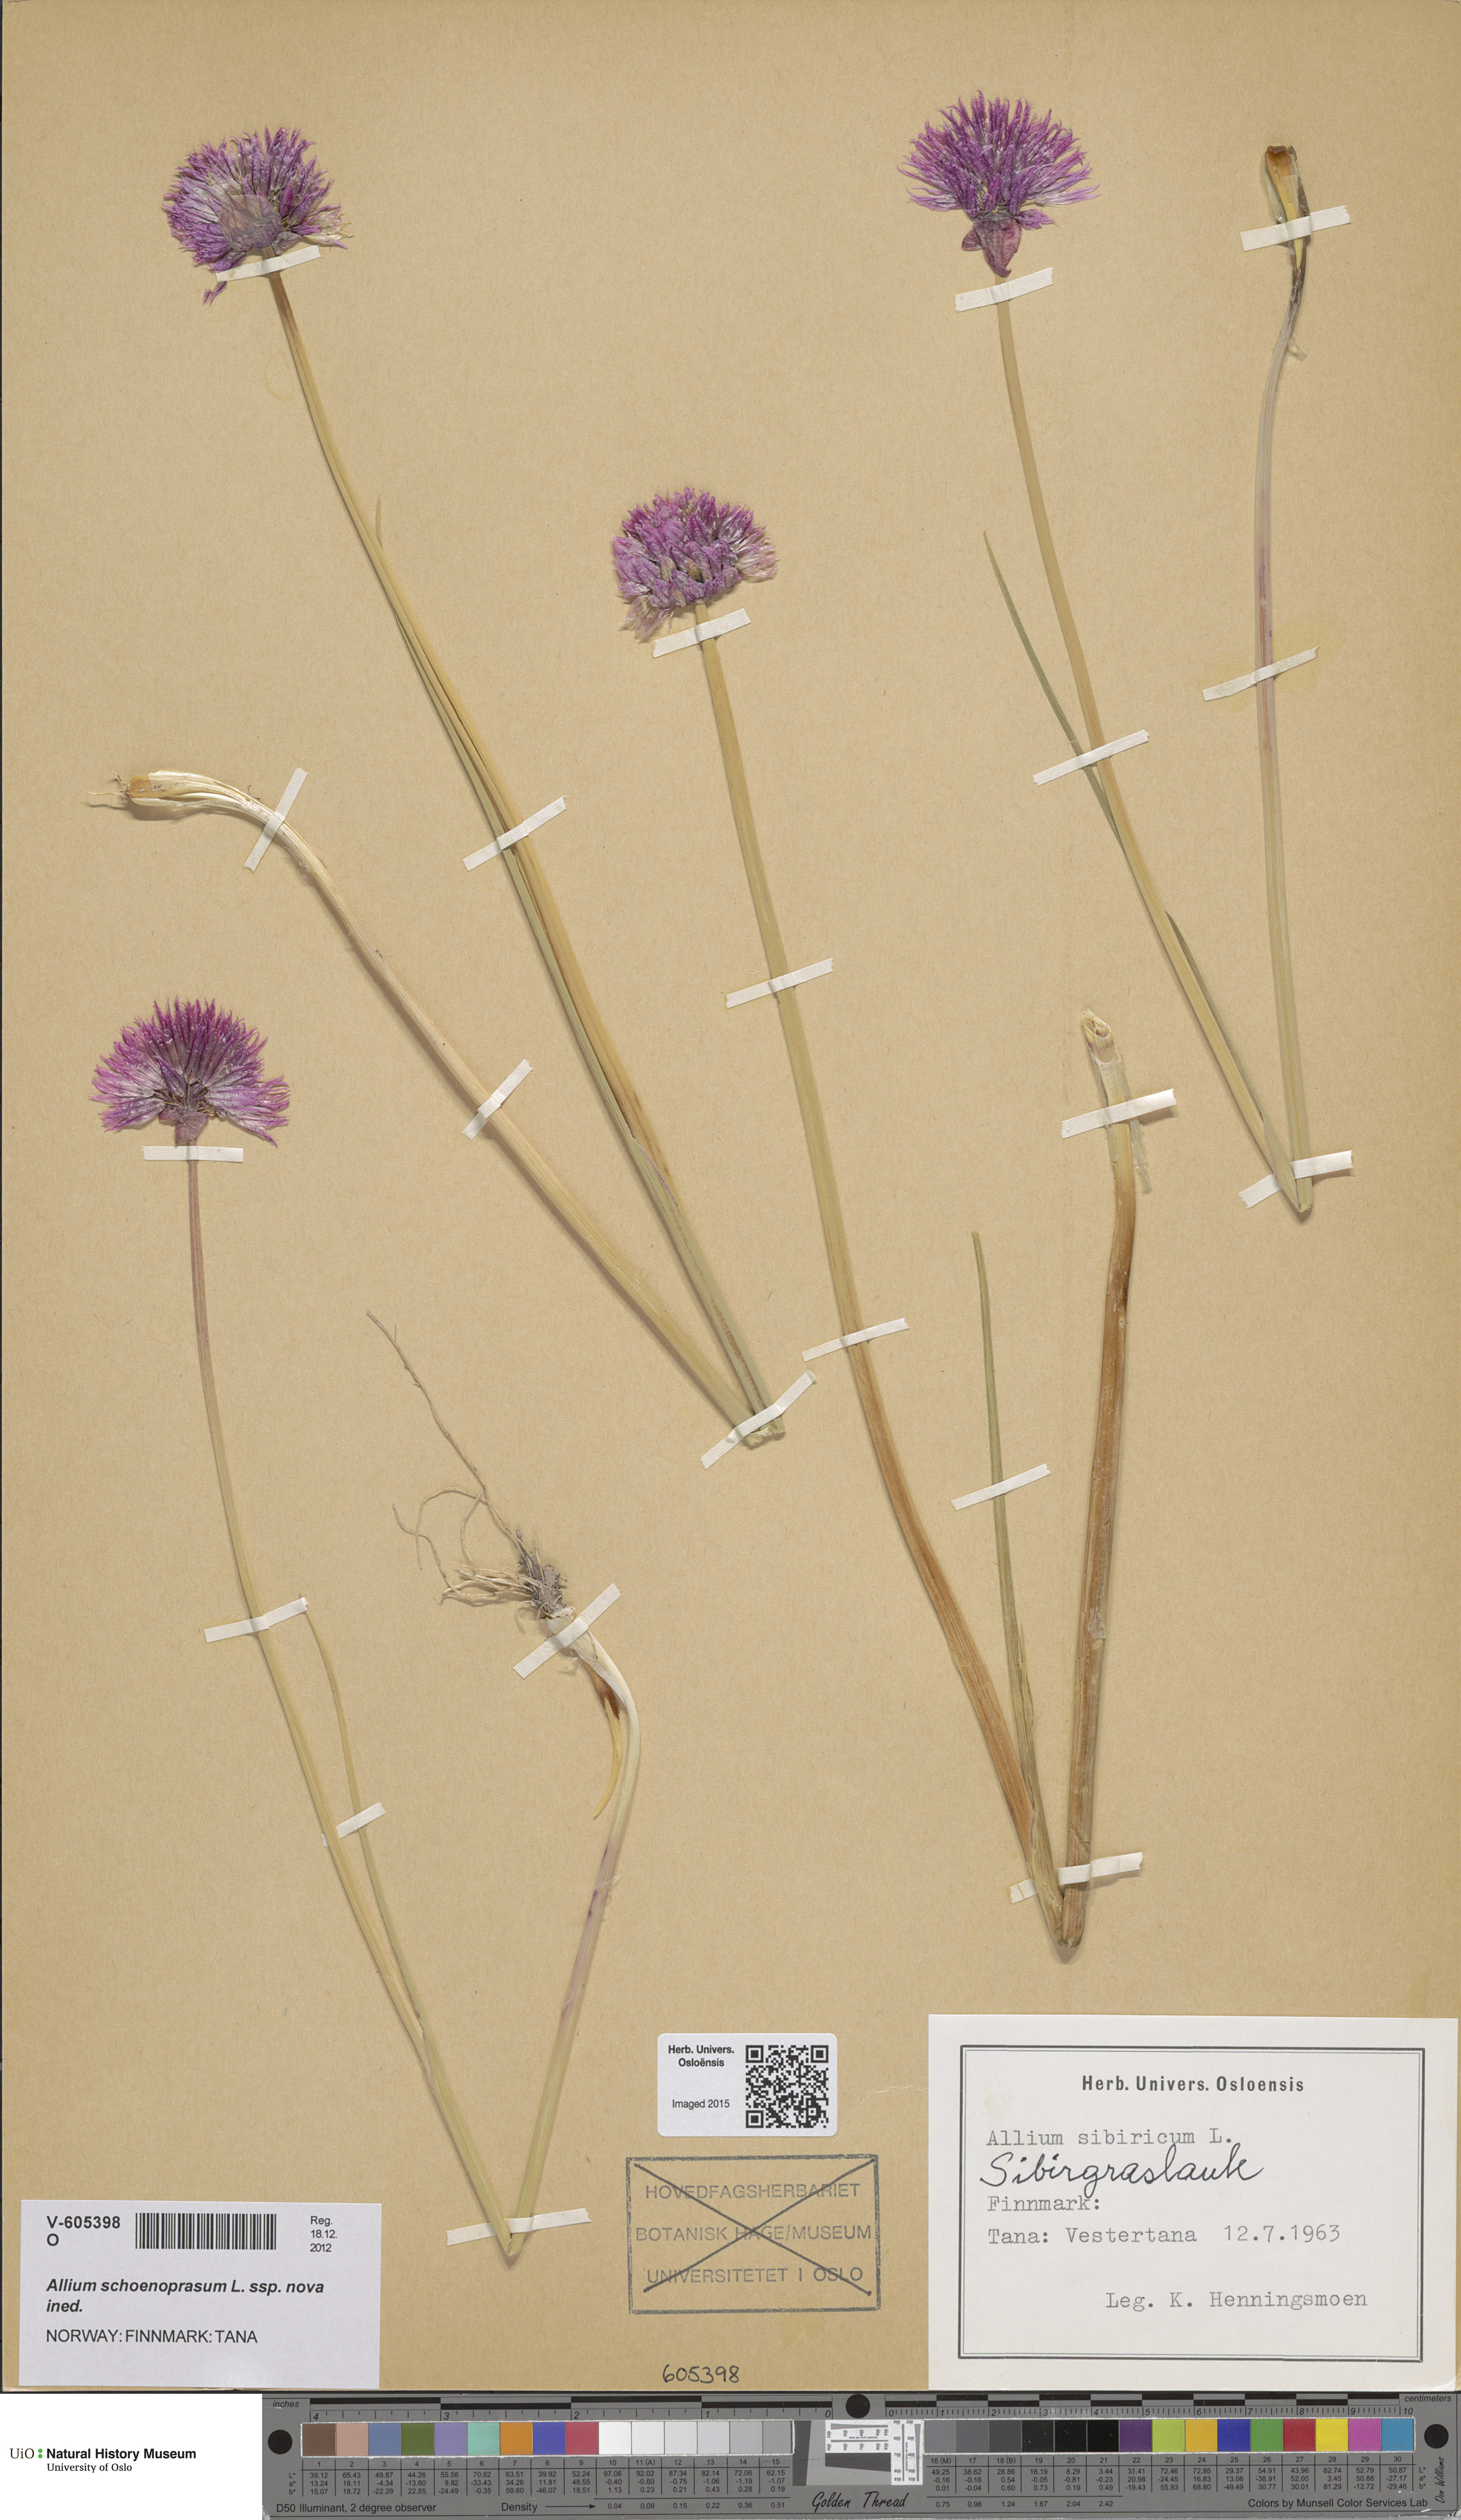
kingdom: Plantae
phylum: Tracheophyta
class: Liliopsida
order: Asparagales
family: Amaryllidaceae
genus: Allium
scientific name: Allium schoenoprasum
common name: Chives
